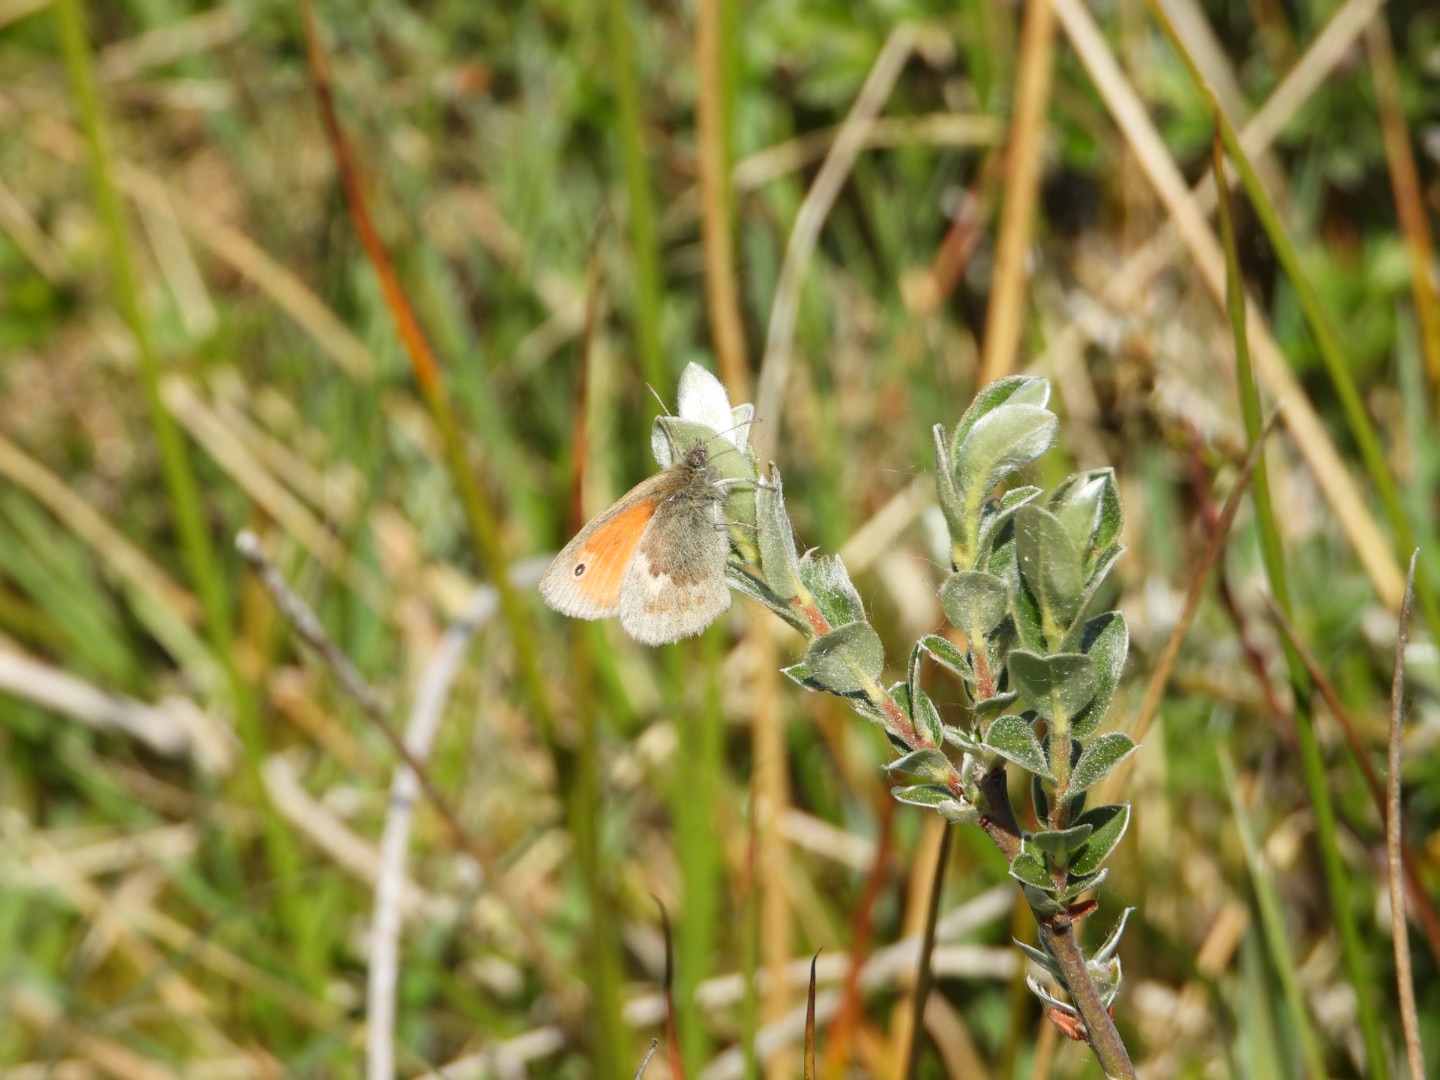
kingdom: Animalia
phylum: Arthropoda
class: Insecta
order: Lepidoptera
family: Nymphalidae
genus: Coenonympha
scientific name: Coenonympha pamphilus
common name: Okkergul randøje
